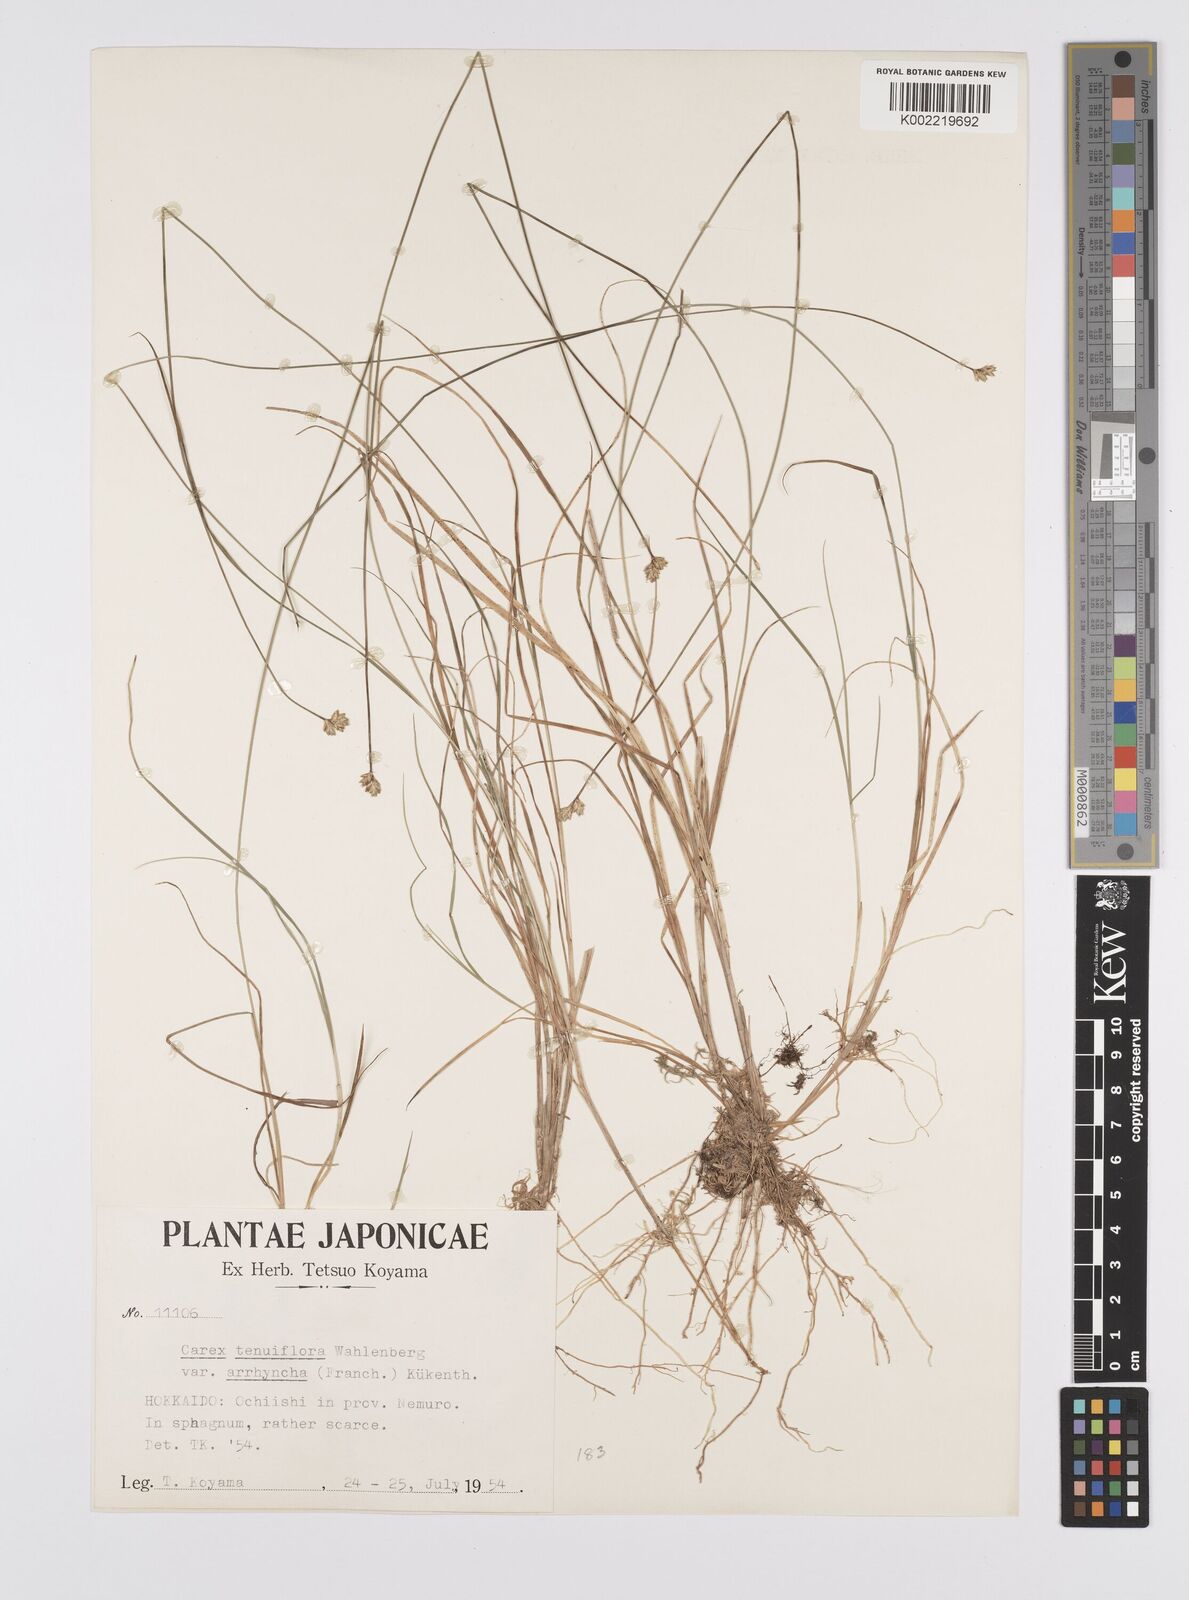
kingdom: Plantae
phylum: Tracheophyta
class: Liliopsida
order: Poales
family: Cyperaceae
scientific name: Cyperaceae
